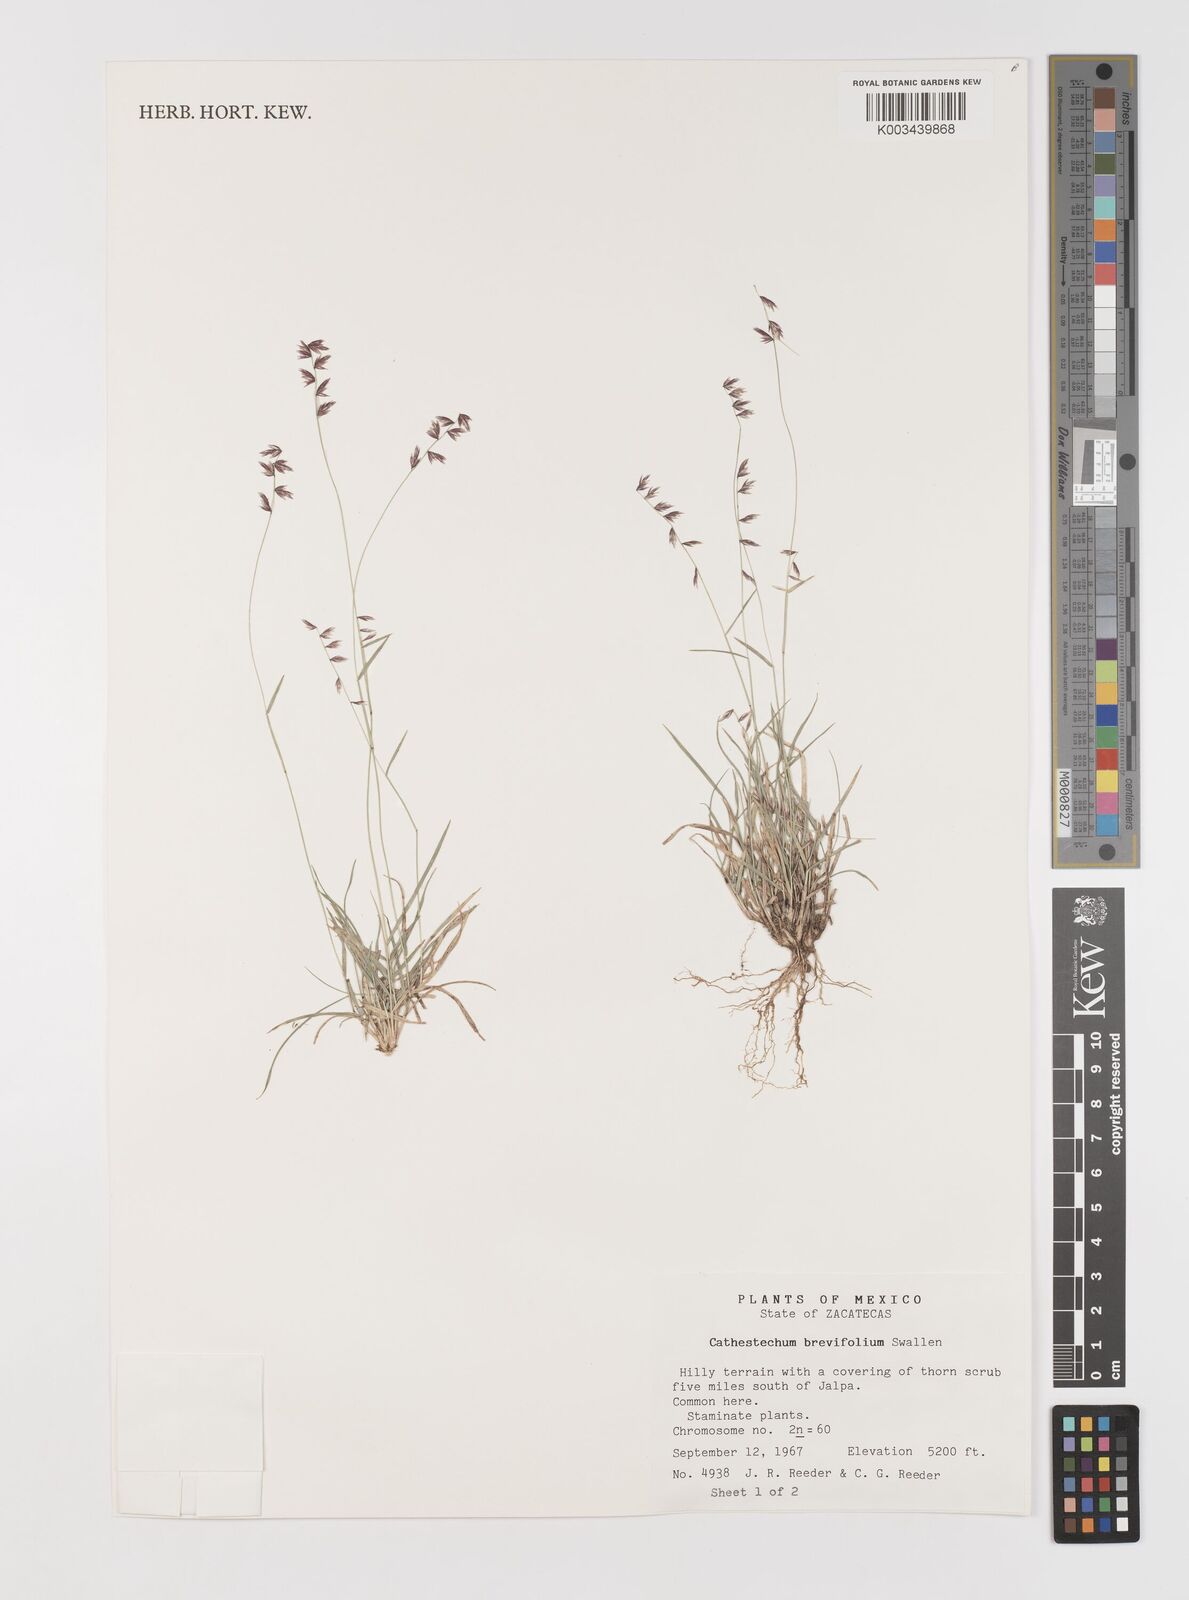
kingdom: Plantae
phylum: Tracheophyta
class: Liliopsida
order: Poales
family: Poaceae
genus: Bouteloua
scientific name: Bouteloua diversispicula
